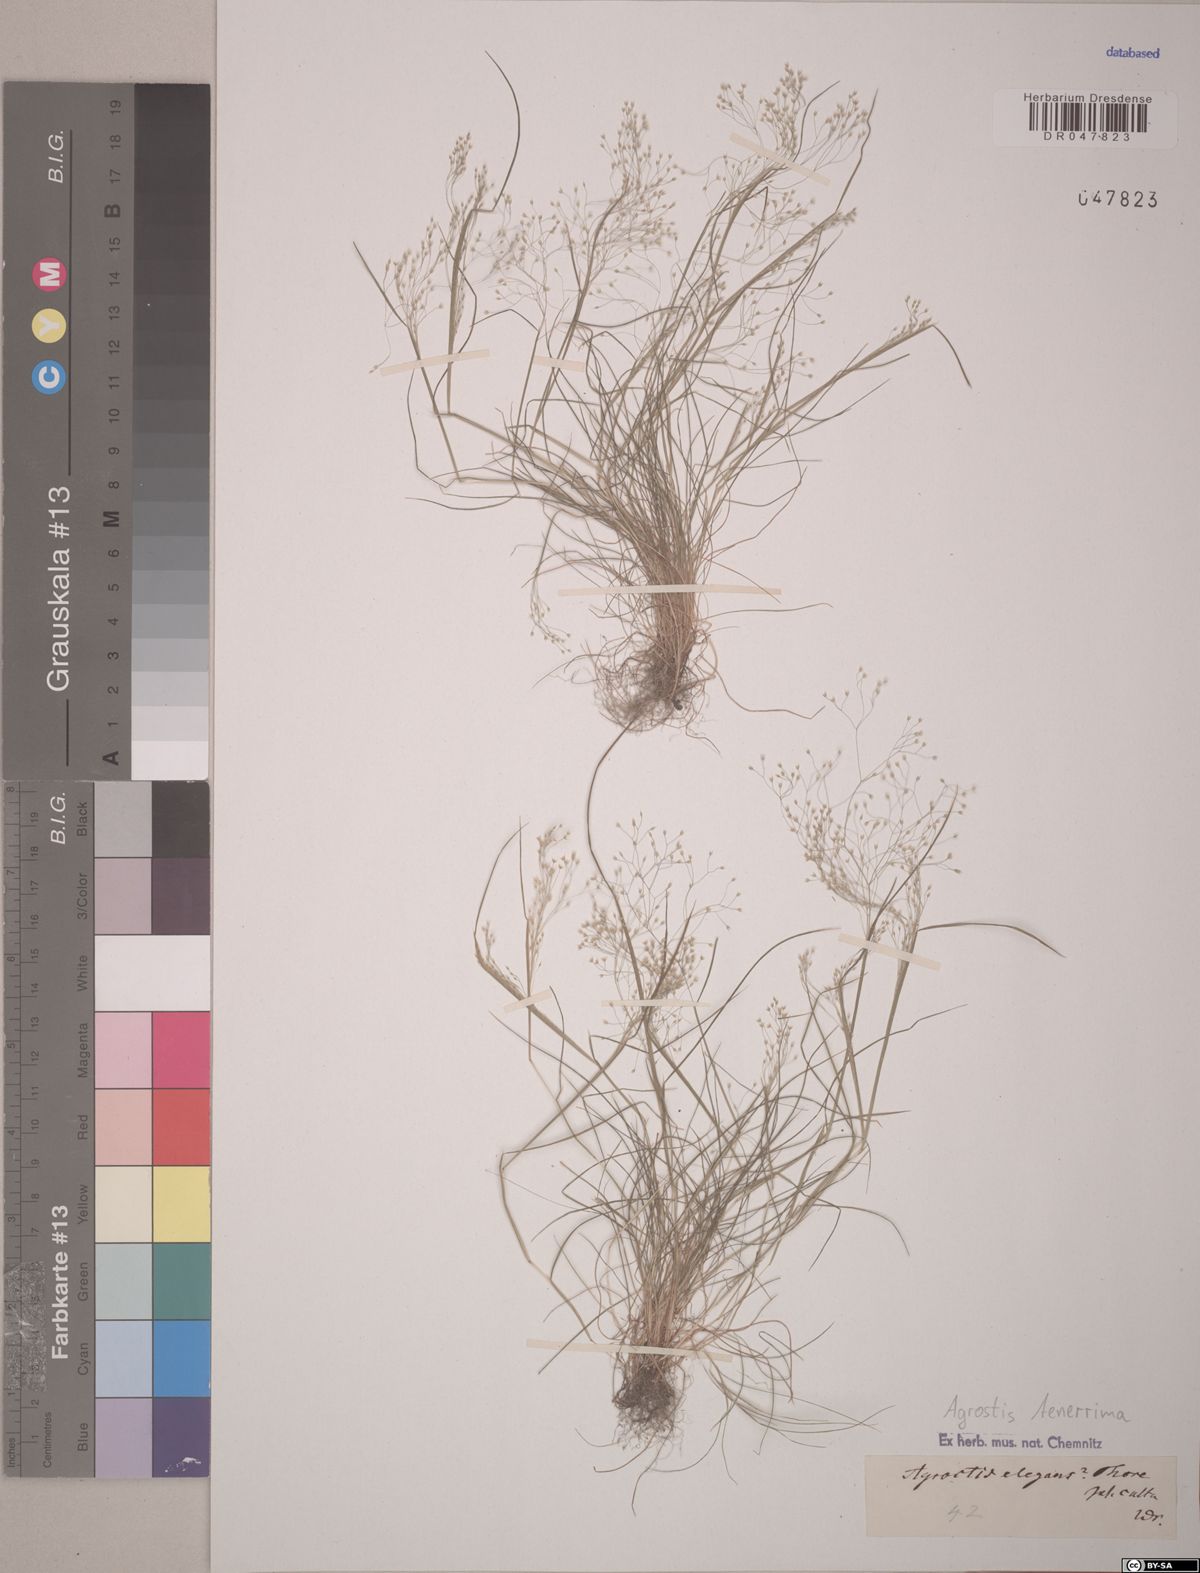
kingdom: Plantae
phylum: Tracheophyta
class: Liliopsida
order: Poales
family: Poaceae
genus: Agrostis
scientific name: Agrostis tenerrima
